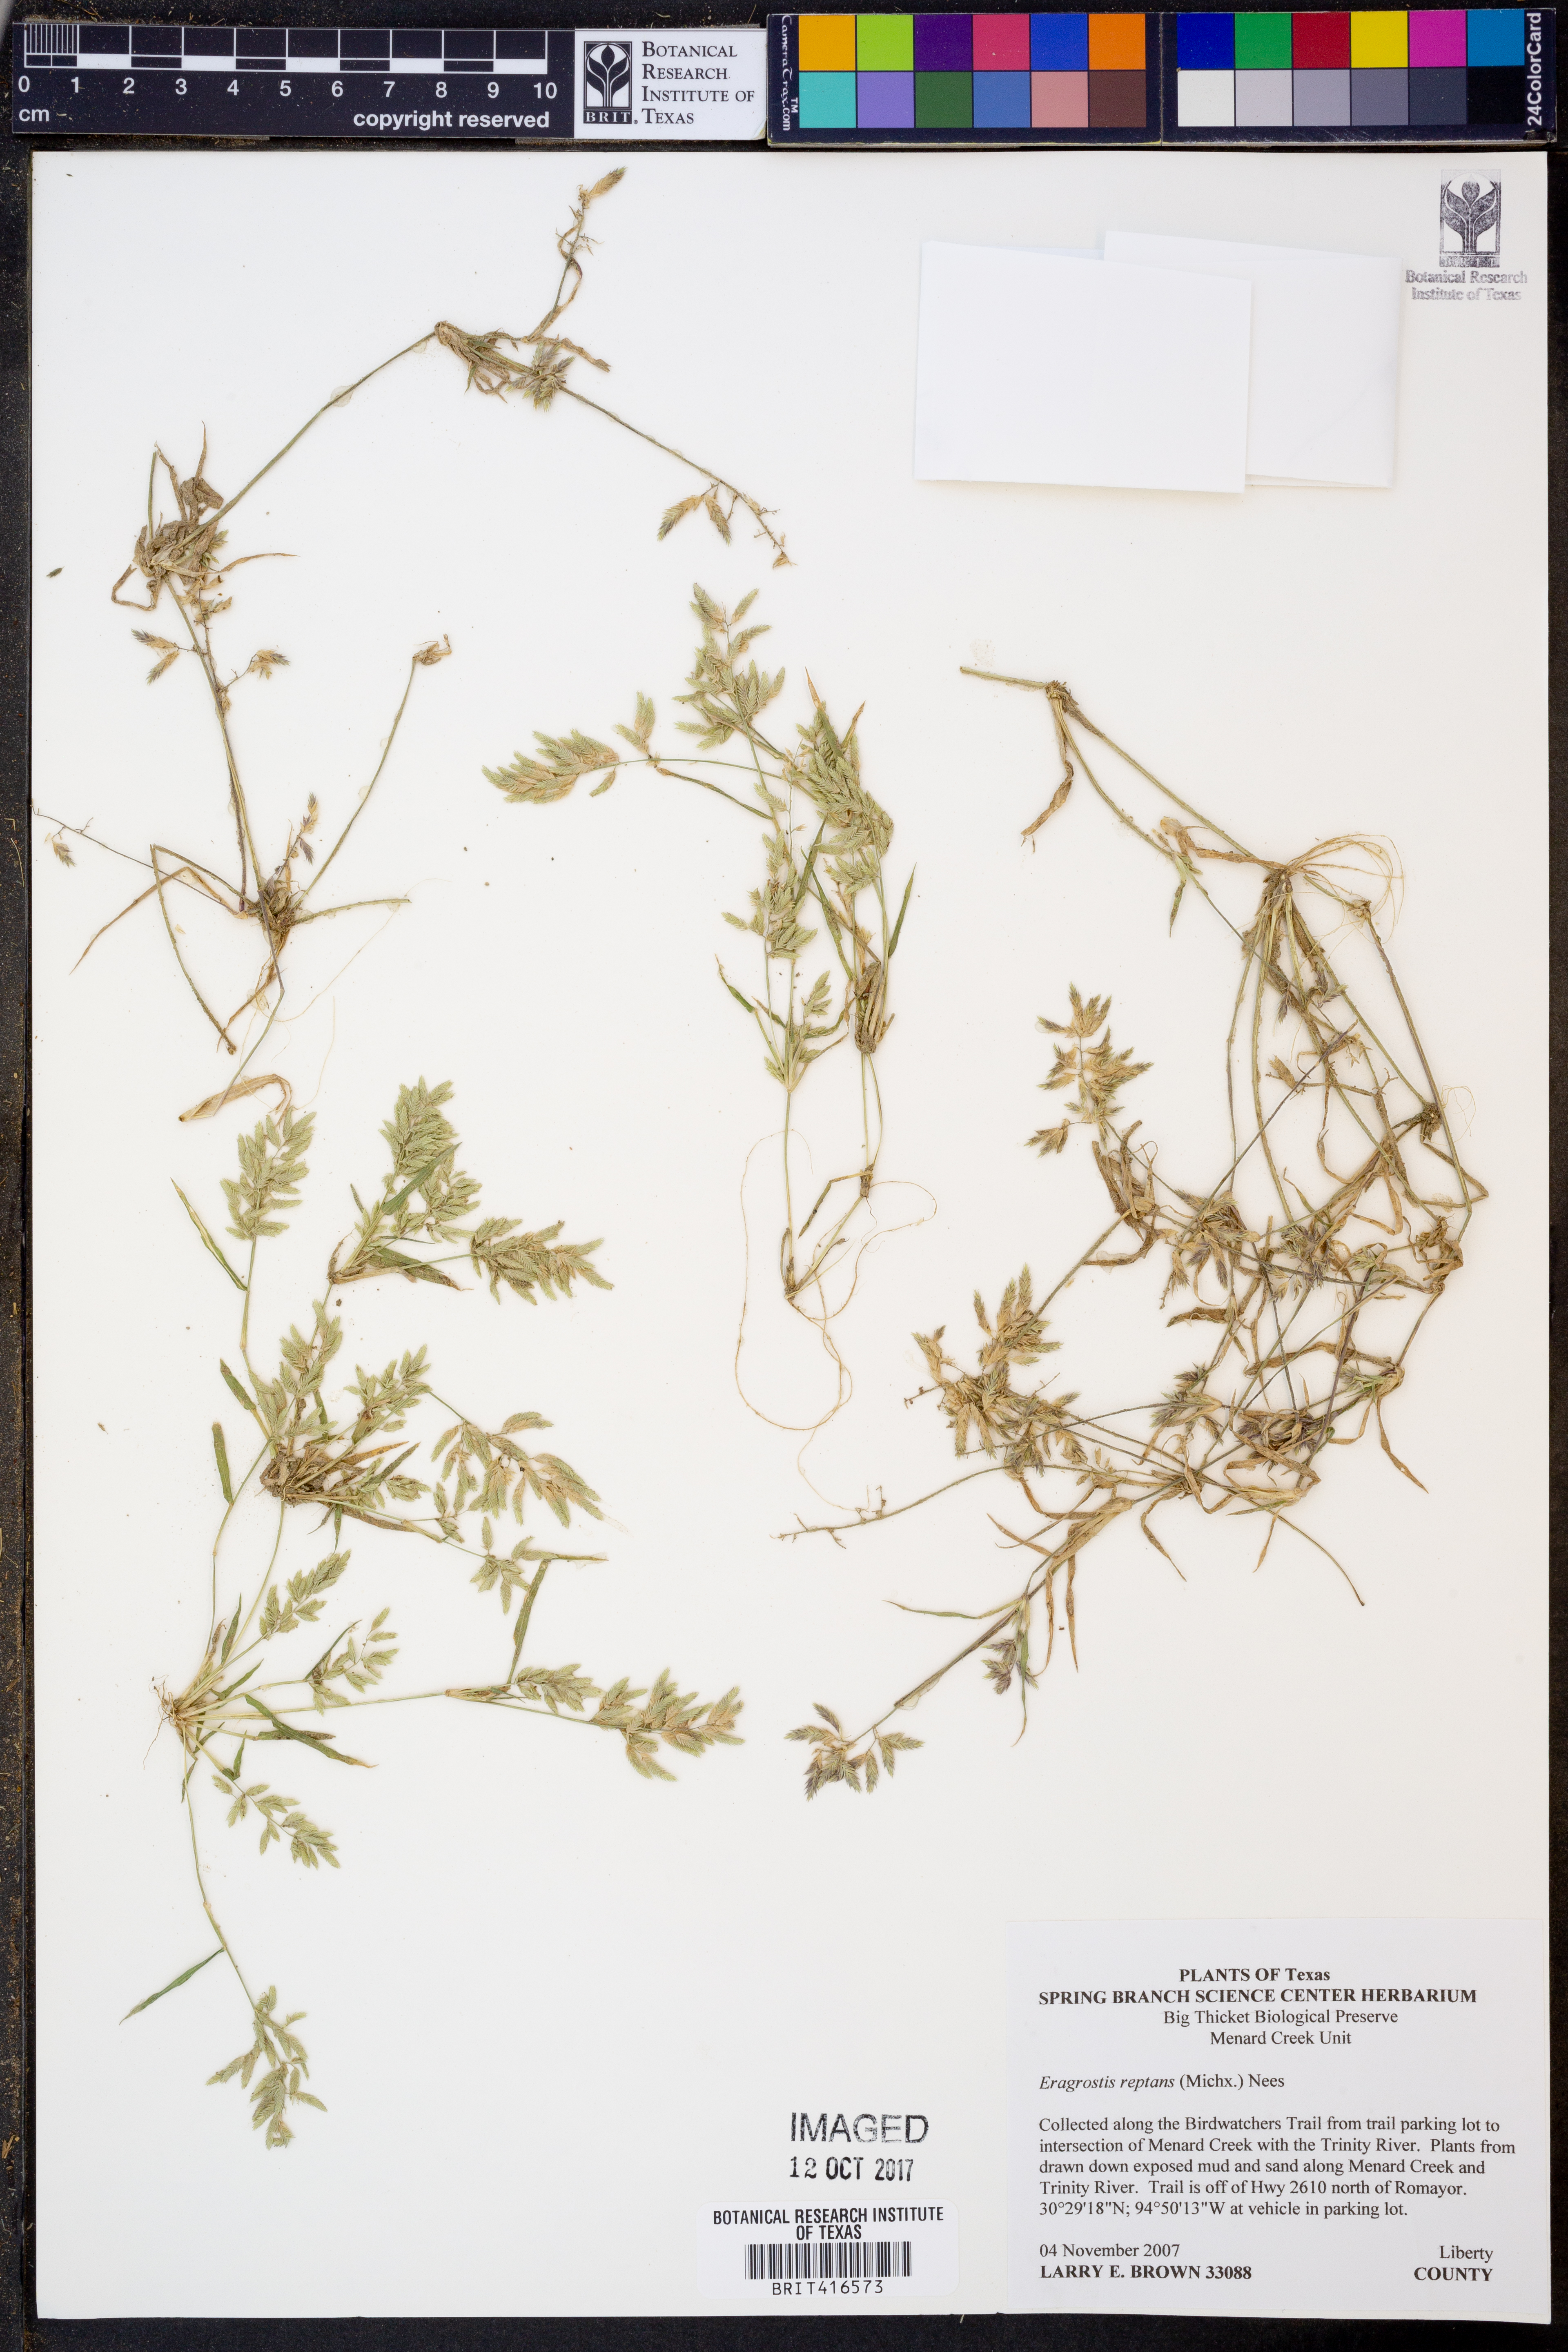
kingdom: Plantae
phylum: Tracheophyta
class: Liliopsida
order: Poales
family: Poaceae
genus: Eragrostis
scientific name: Eragrostis reptans
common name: Creeping love grass
